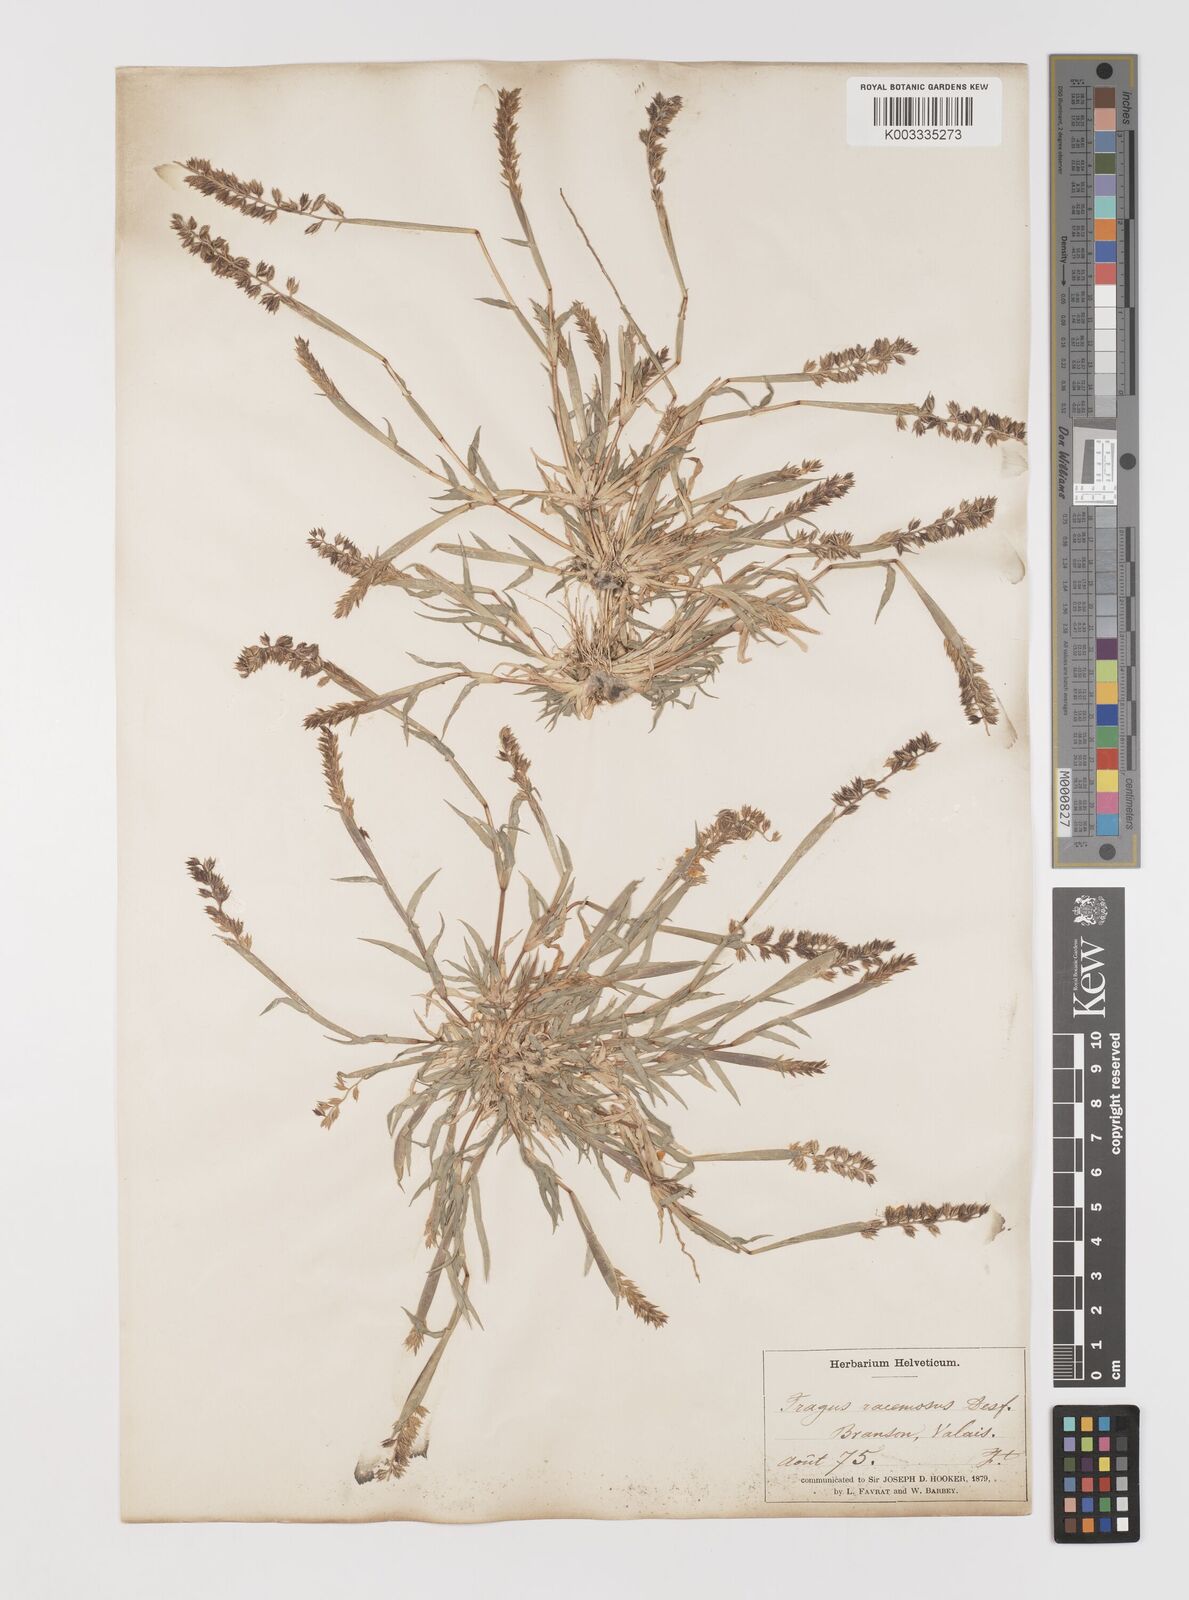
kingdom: Plantae
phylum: Tracheophyta
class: Liliopsida
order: Poales
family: Poaceae
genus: Tragus
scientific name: Tragus racemosus
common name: European bur-grass
